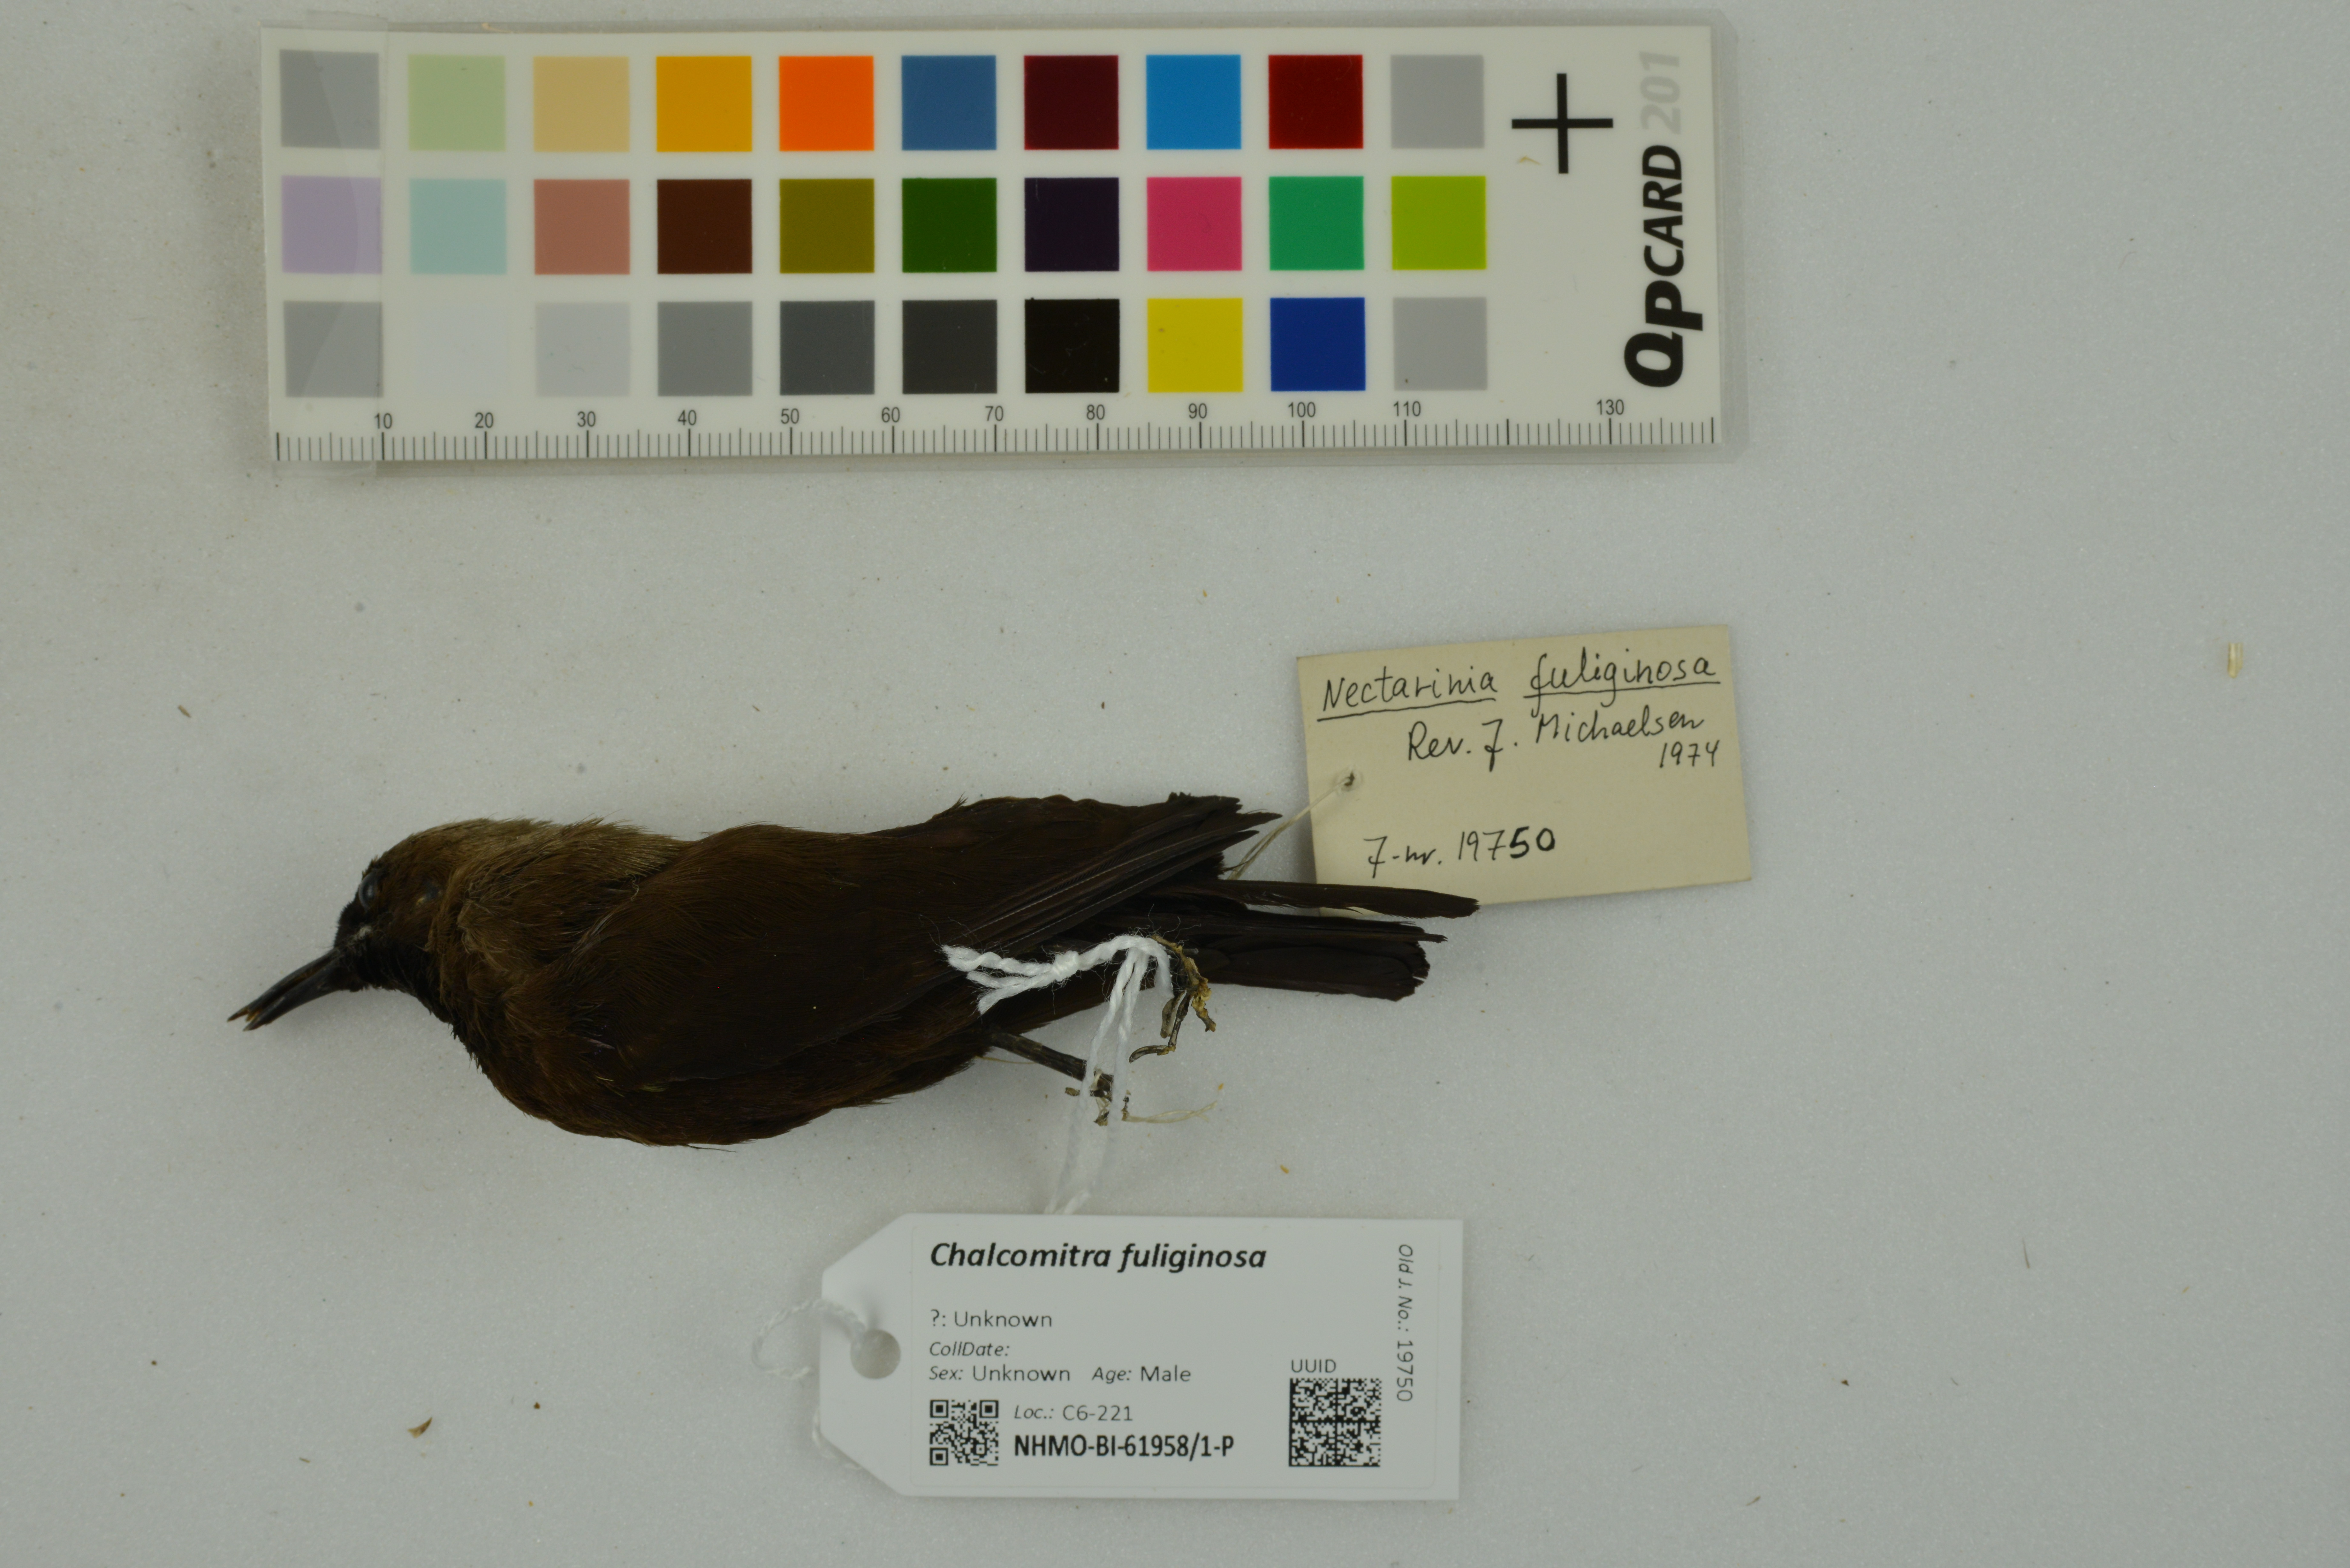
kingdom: Animalia
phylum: Chordata
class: Aves
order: Passeriformes
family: Nectariniidae
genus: Chalcomitra
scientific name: Chalcomitra fuliginosa
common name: Carmelite sunbird
